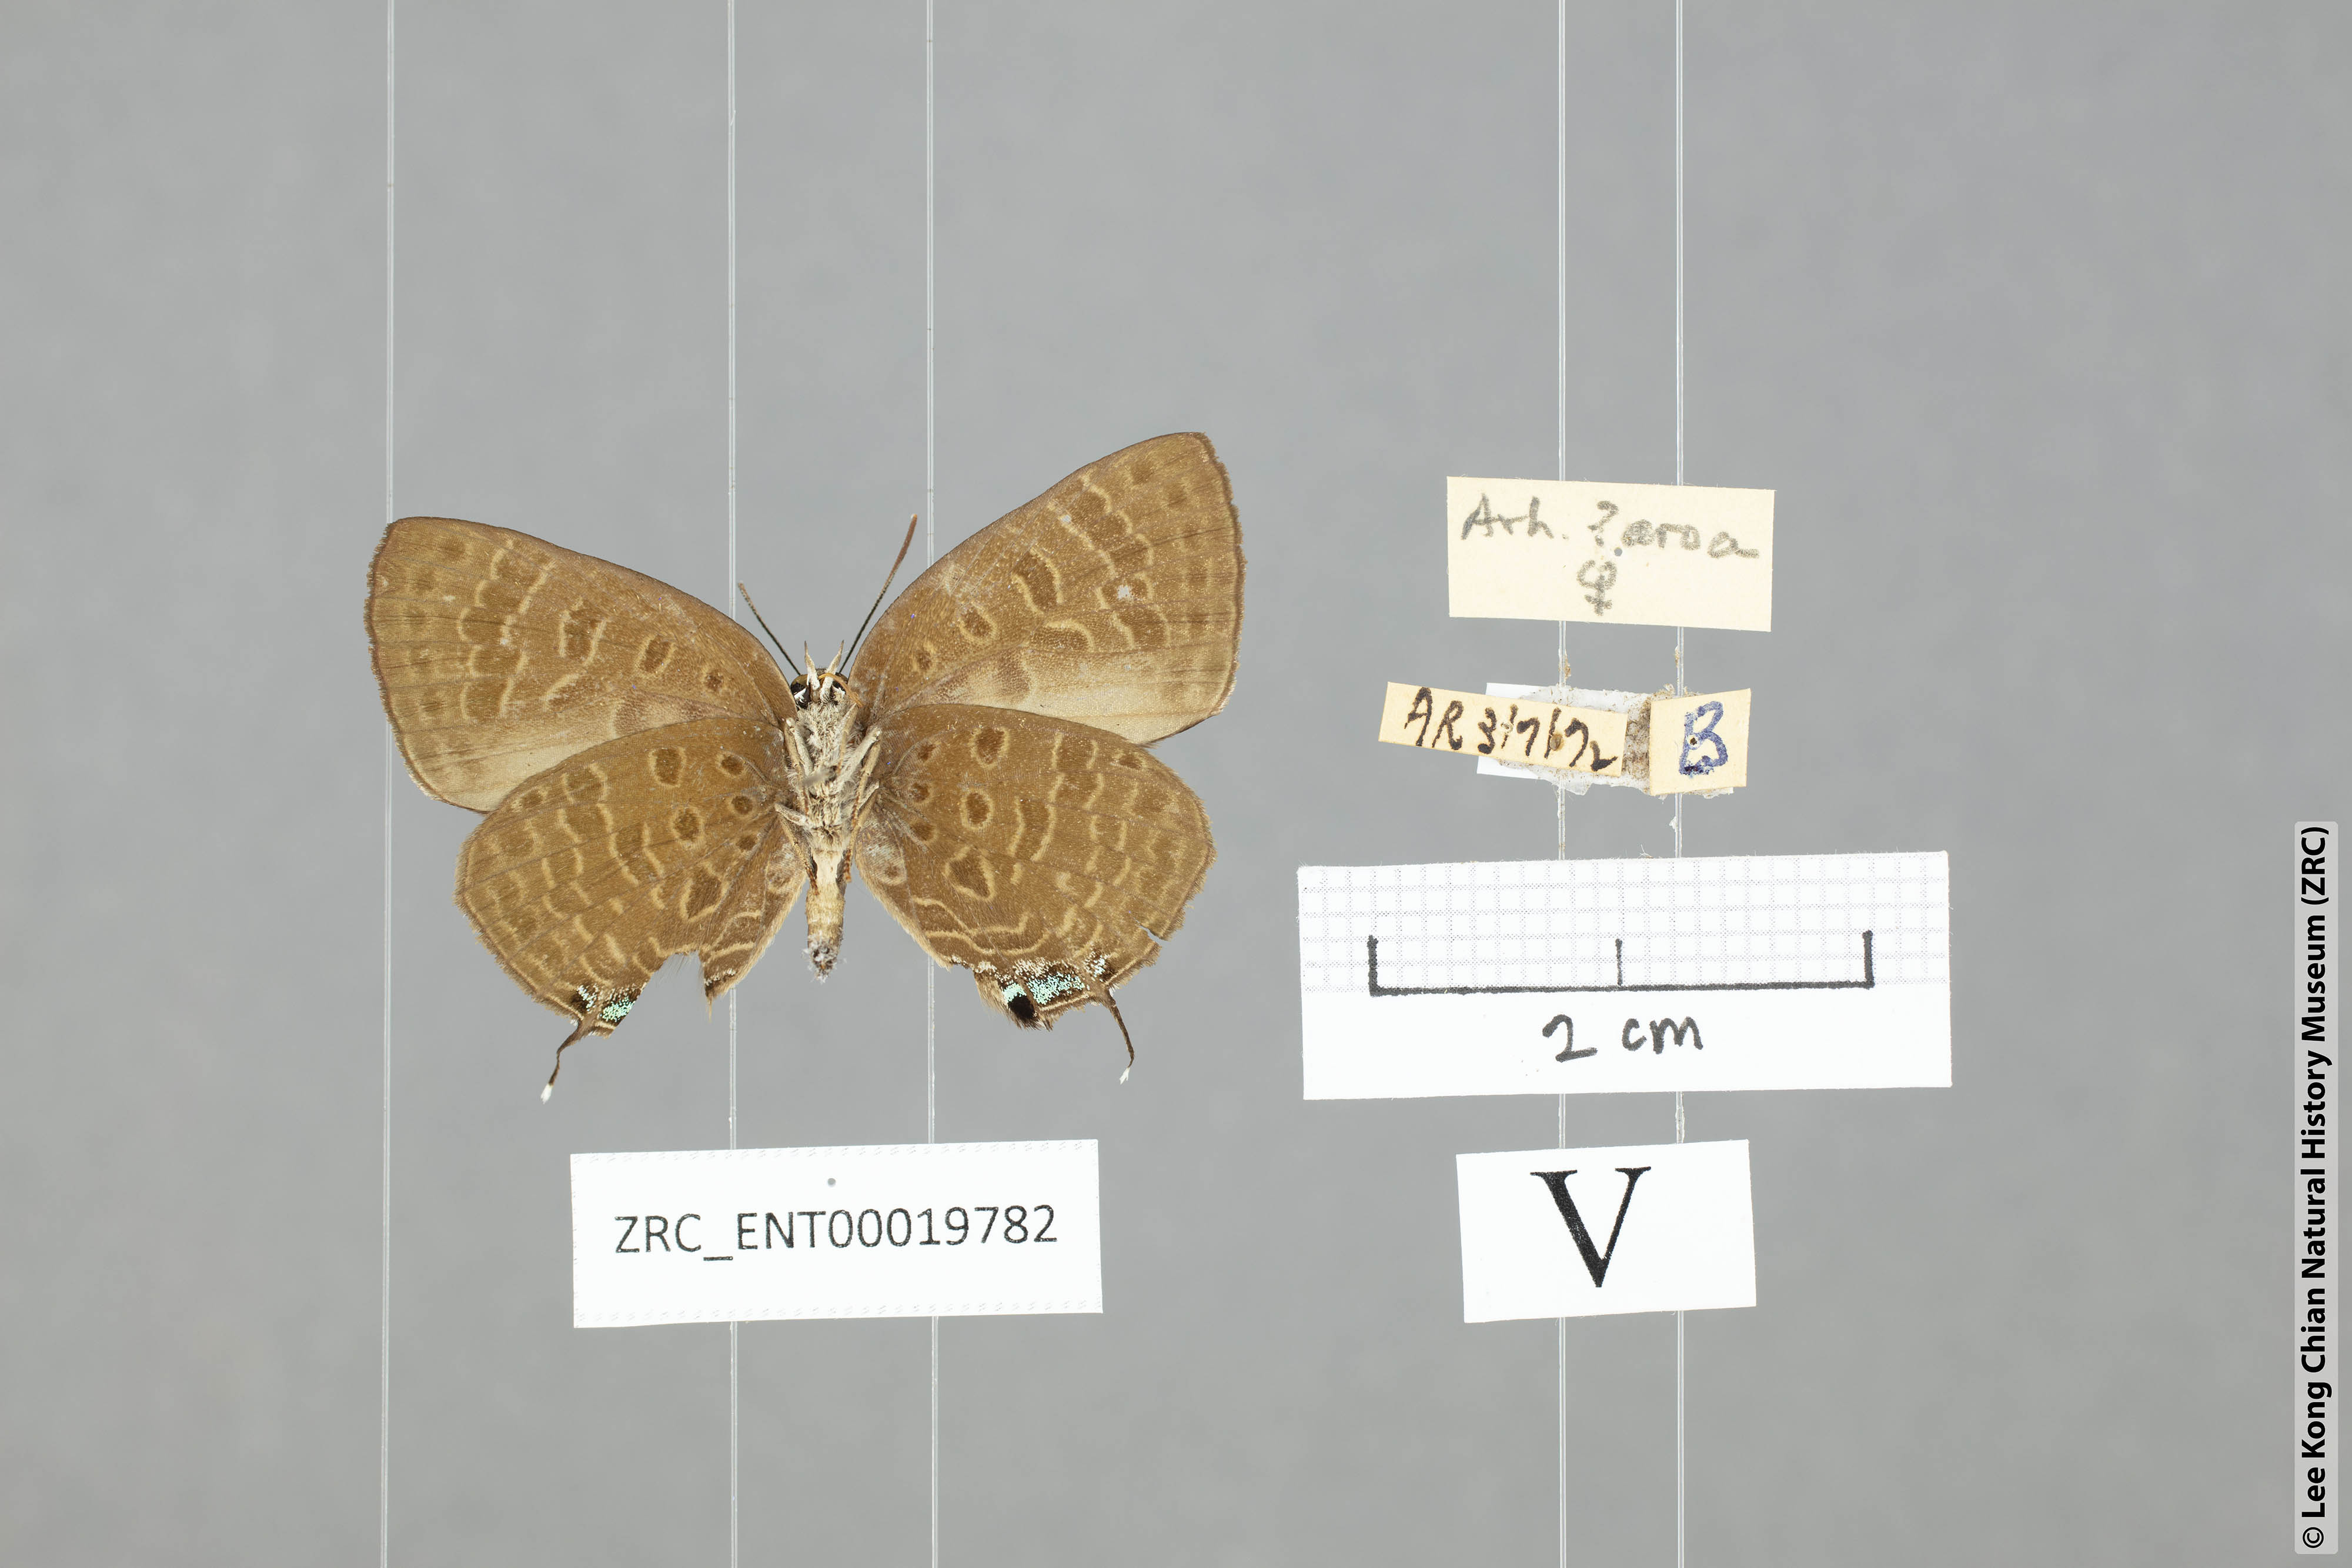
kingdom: Animalia
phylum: Arthropoda
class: Insecta
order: Lepidoptera
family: Lycaenidae
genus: Arhopala
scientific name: Arhopala phaenops
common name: Sumatran oakblue
